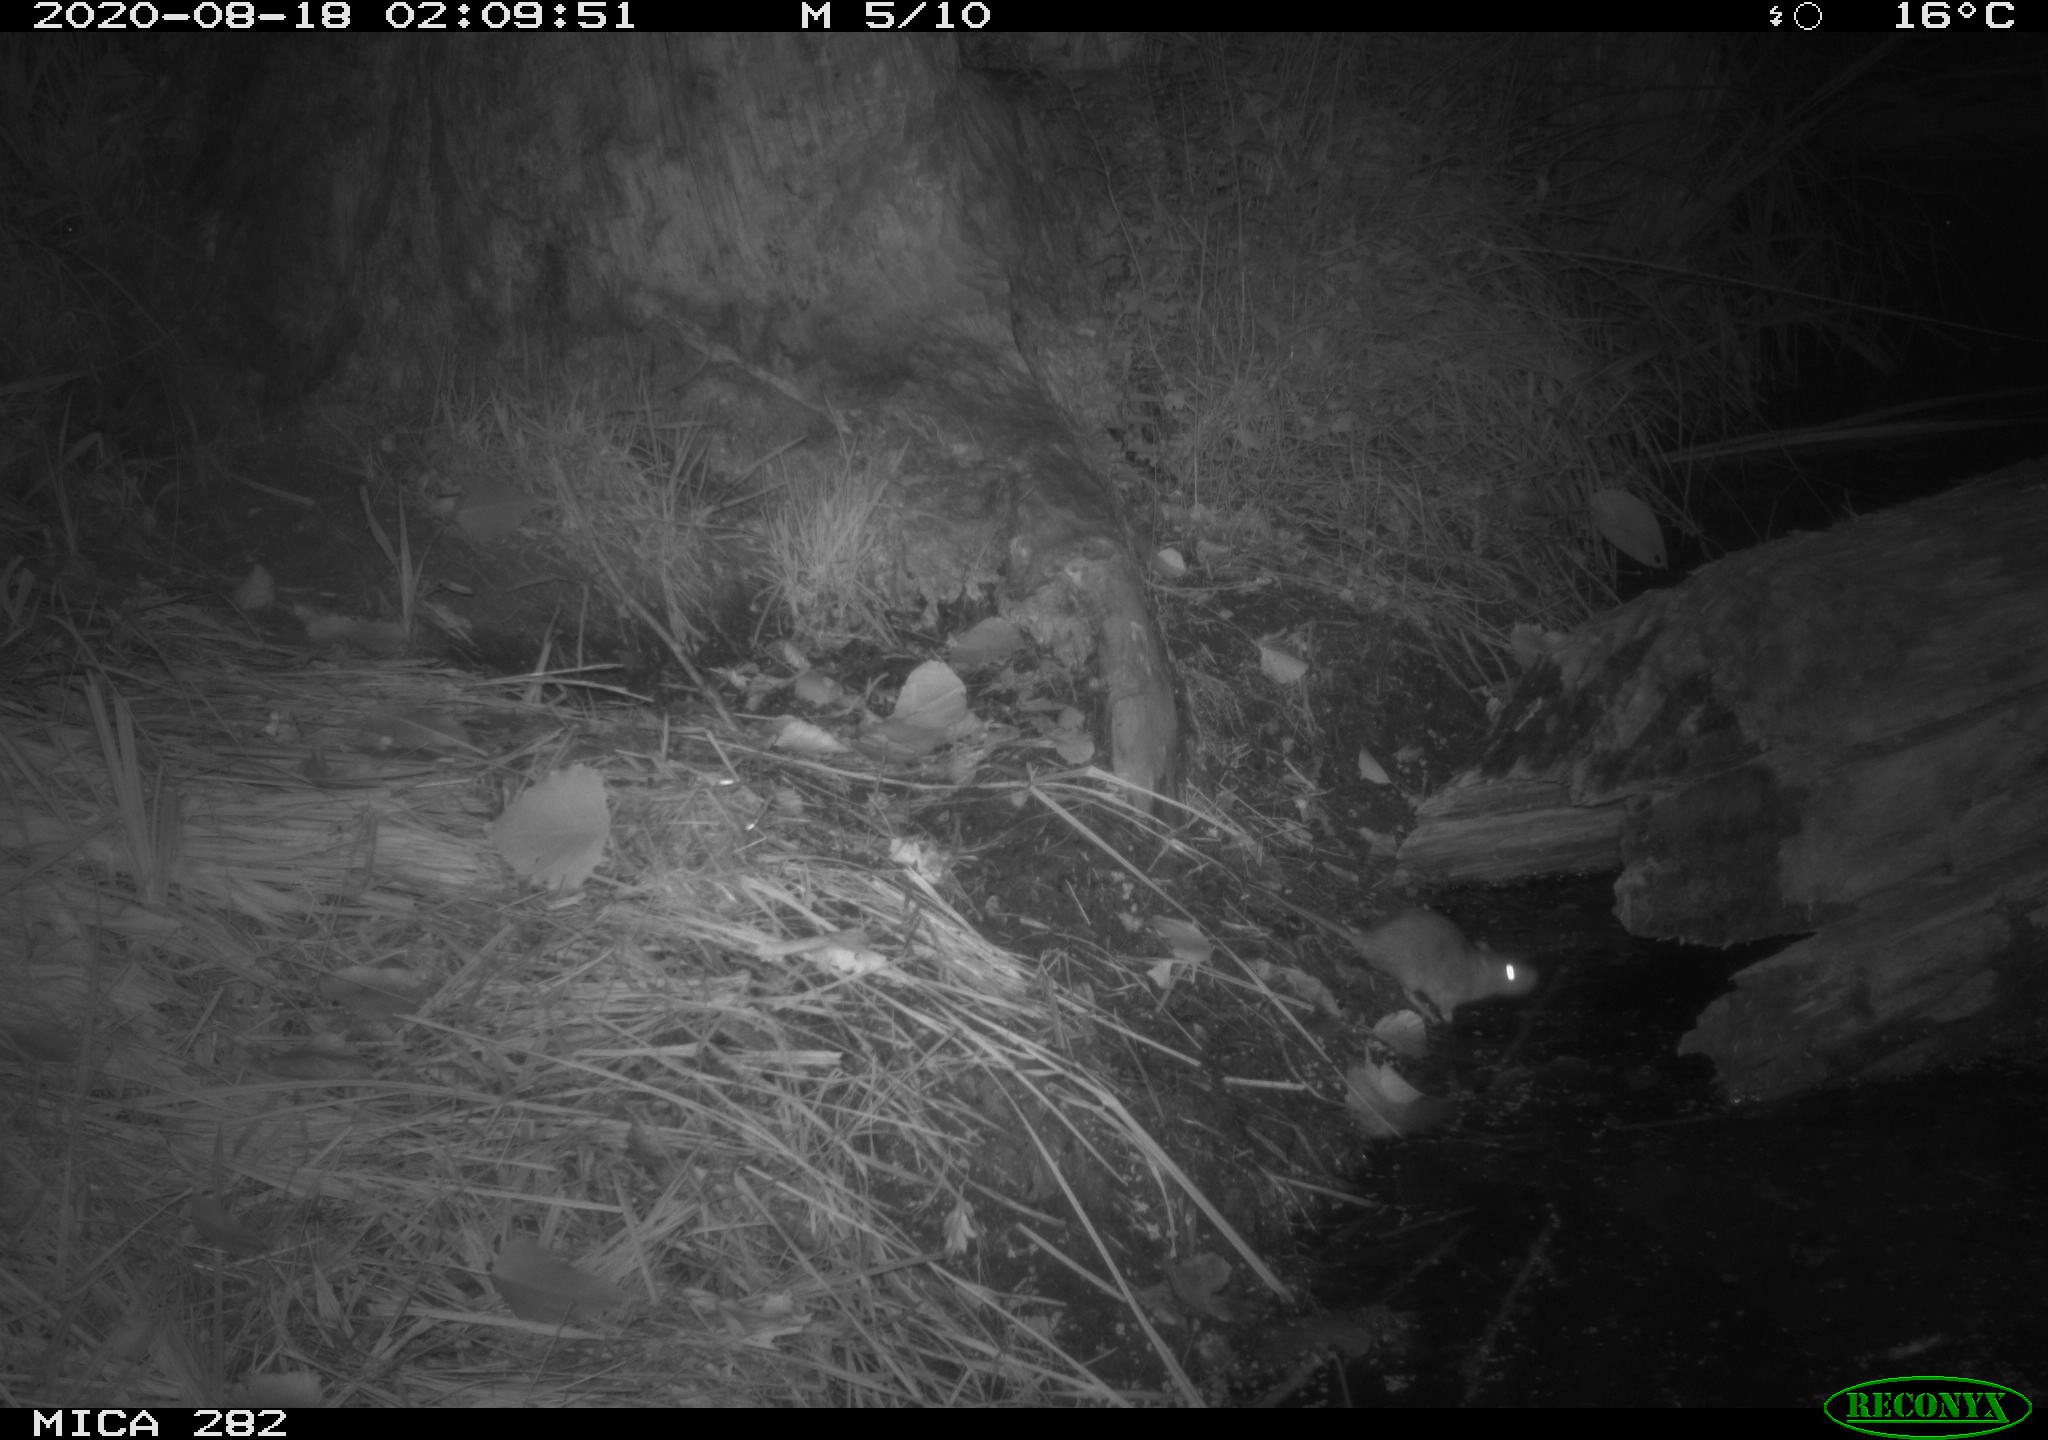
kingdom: Animalia
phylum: Chordata
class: Mammalia
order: Rodentia
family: Muridae
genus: Rattus
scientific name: Rattus norvegicus
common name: Brown rat
